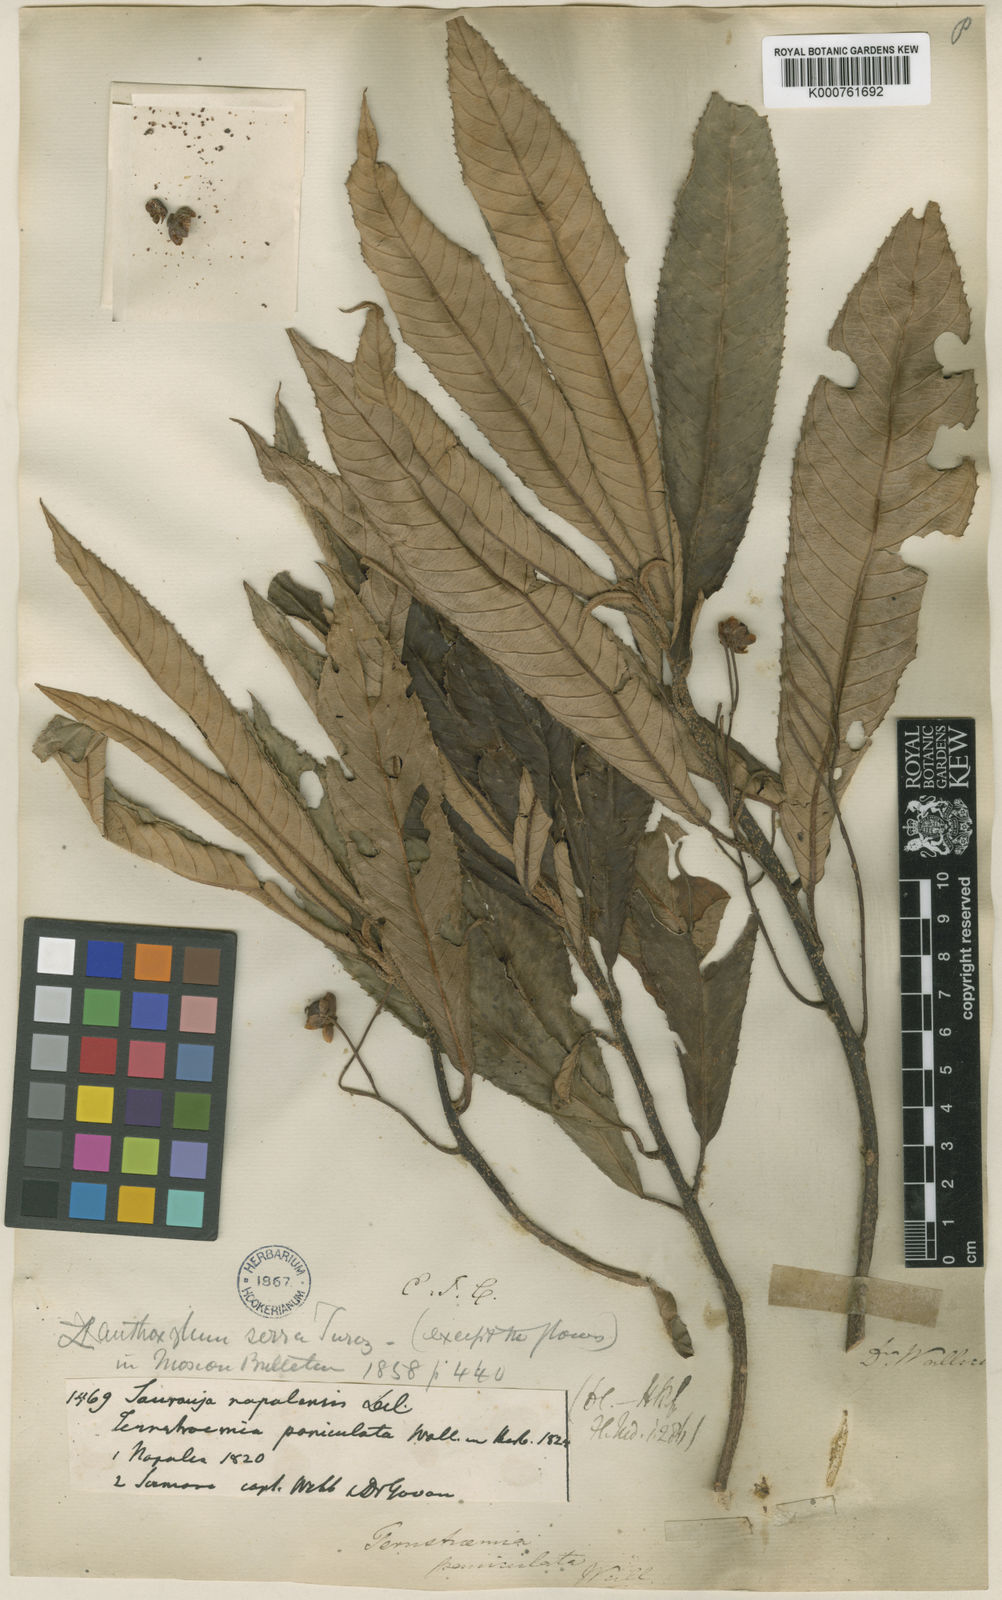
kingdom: Plantae
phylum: Tracheophyta
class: Magnoliopsida
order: Ericales
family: Actinidiaceae
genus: Saurauia
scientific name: Saurauia
